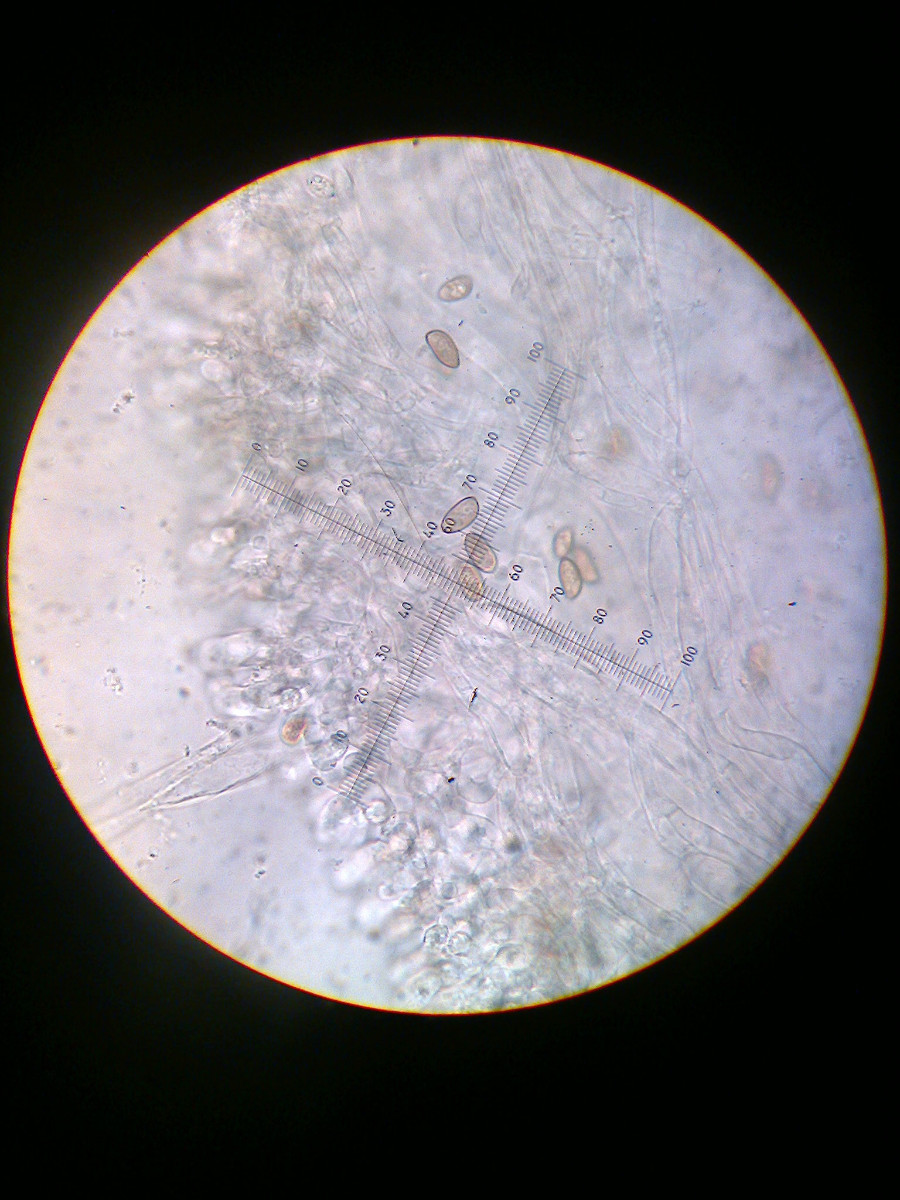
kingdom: Fungi
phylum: Basidiomycota
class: Agaricomycetes
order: Agaricales
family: Inocybaceae
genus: Inocybe
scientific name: Inocybe
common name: trævlhat
